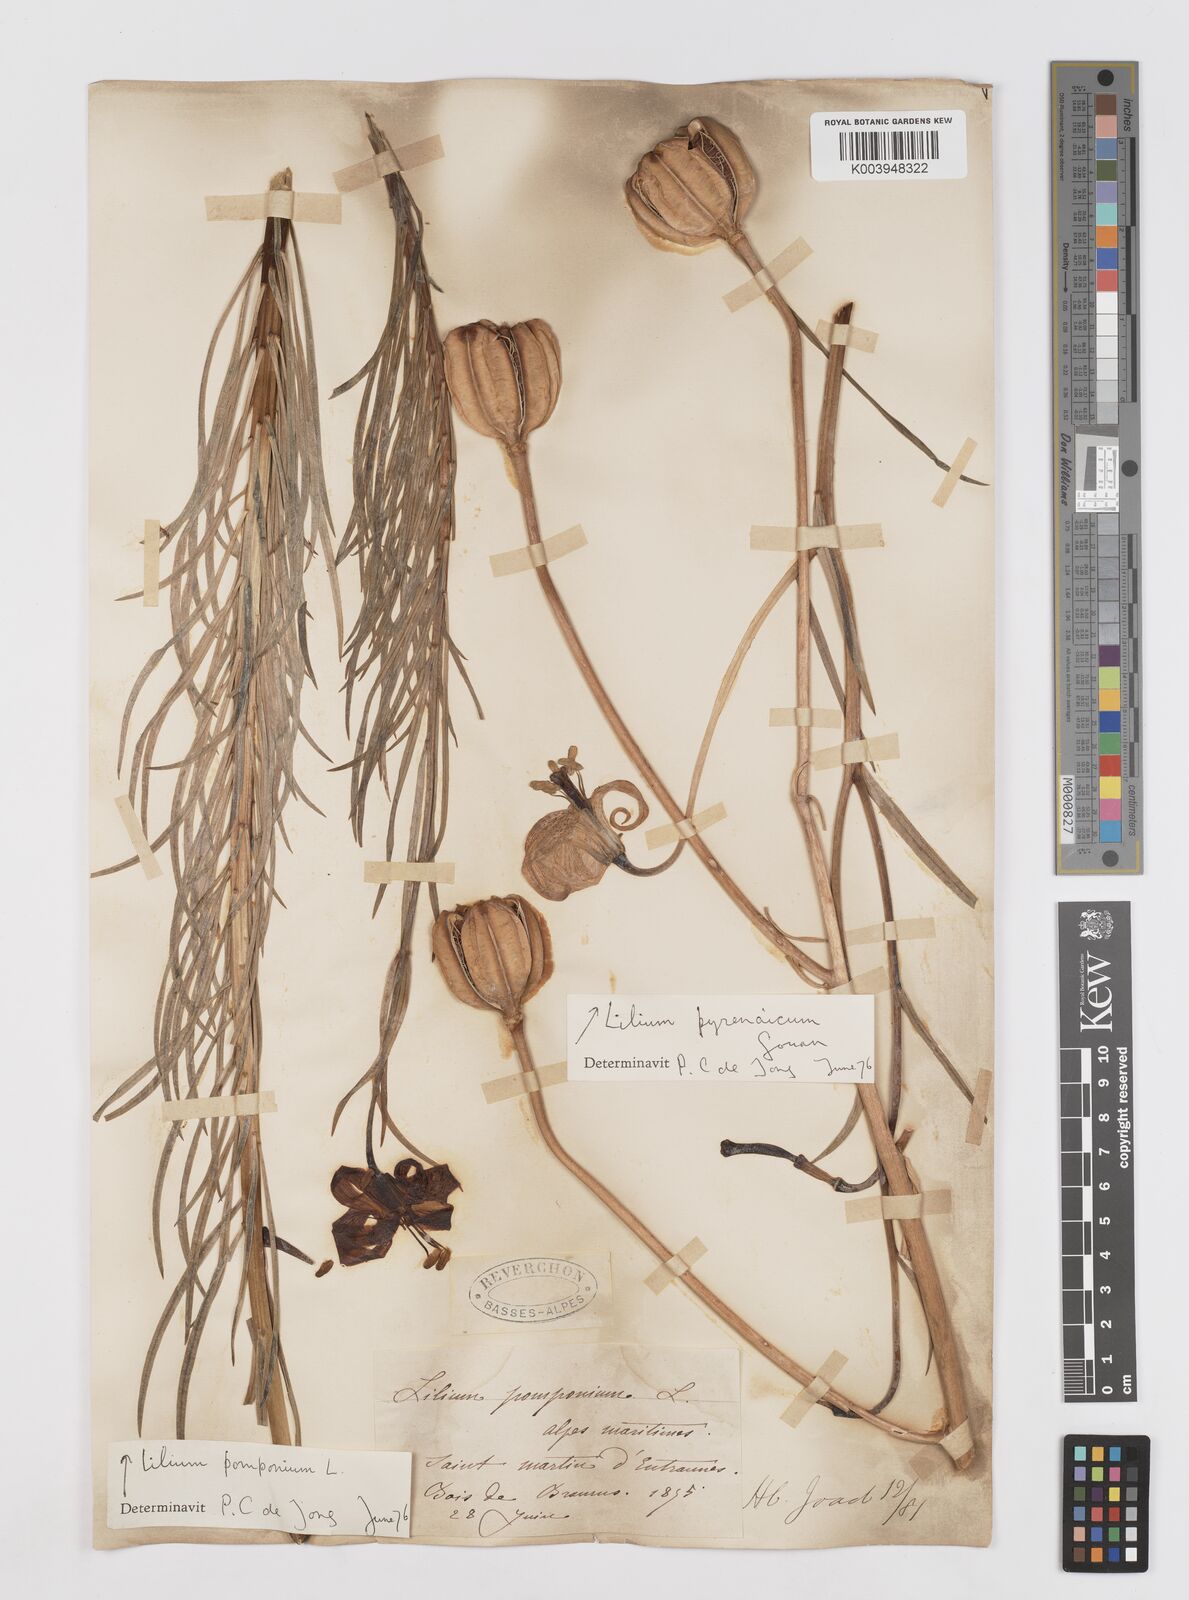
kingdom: Plantae
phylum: Tracheophyta
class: Liliopsida
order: Liliales
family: Liliaceae
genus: Lilium
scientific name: Lilium pomponium
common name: Minor turk's-cap lily
